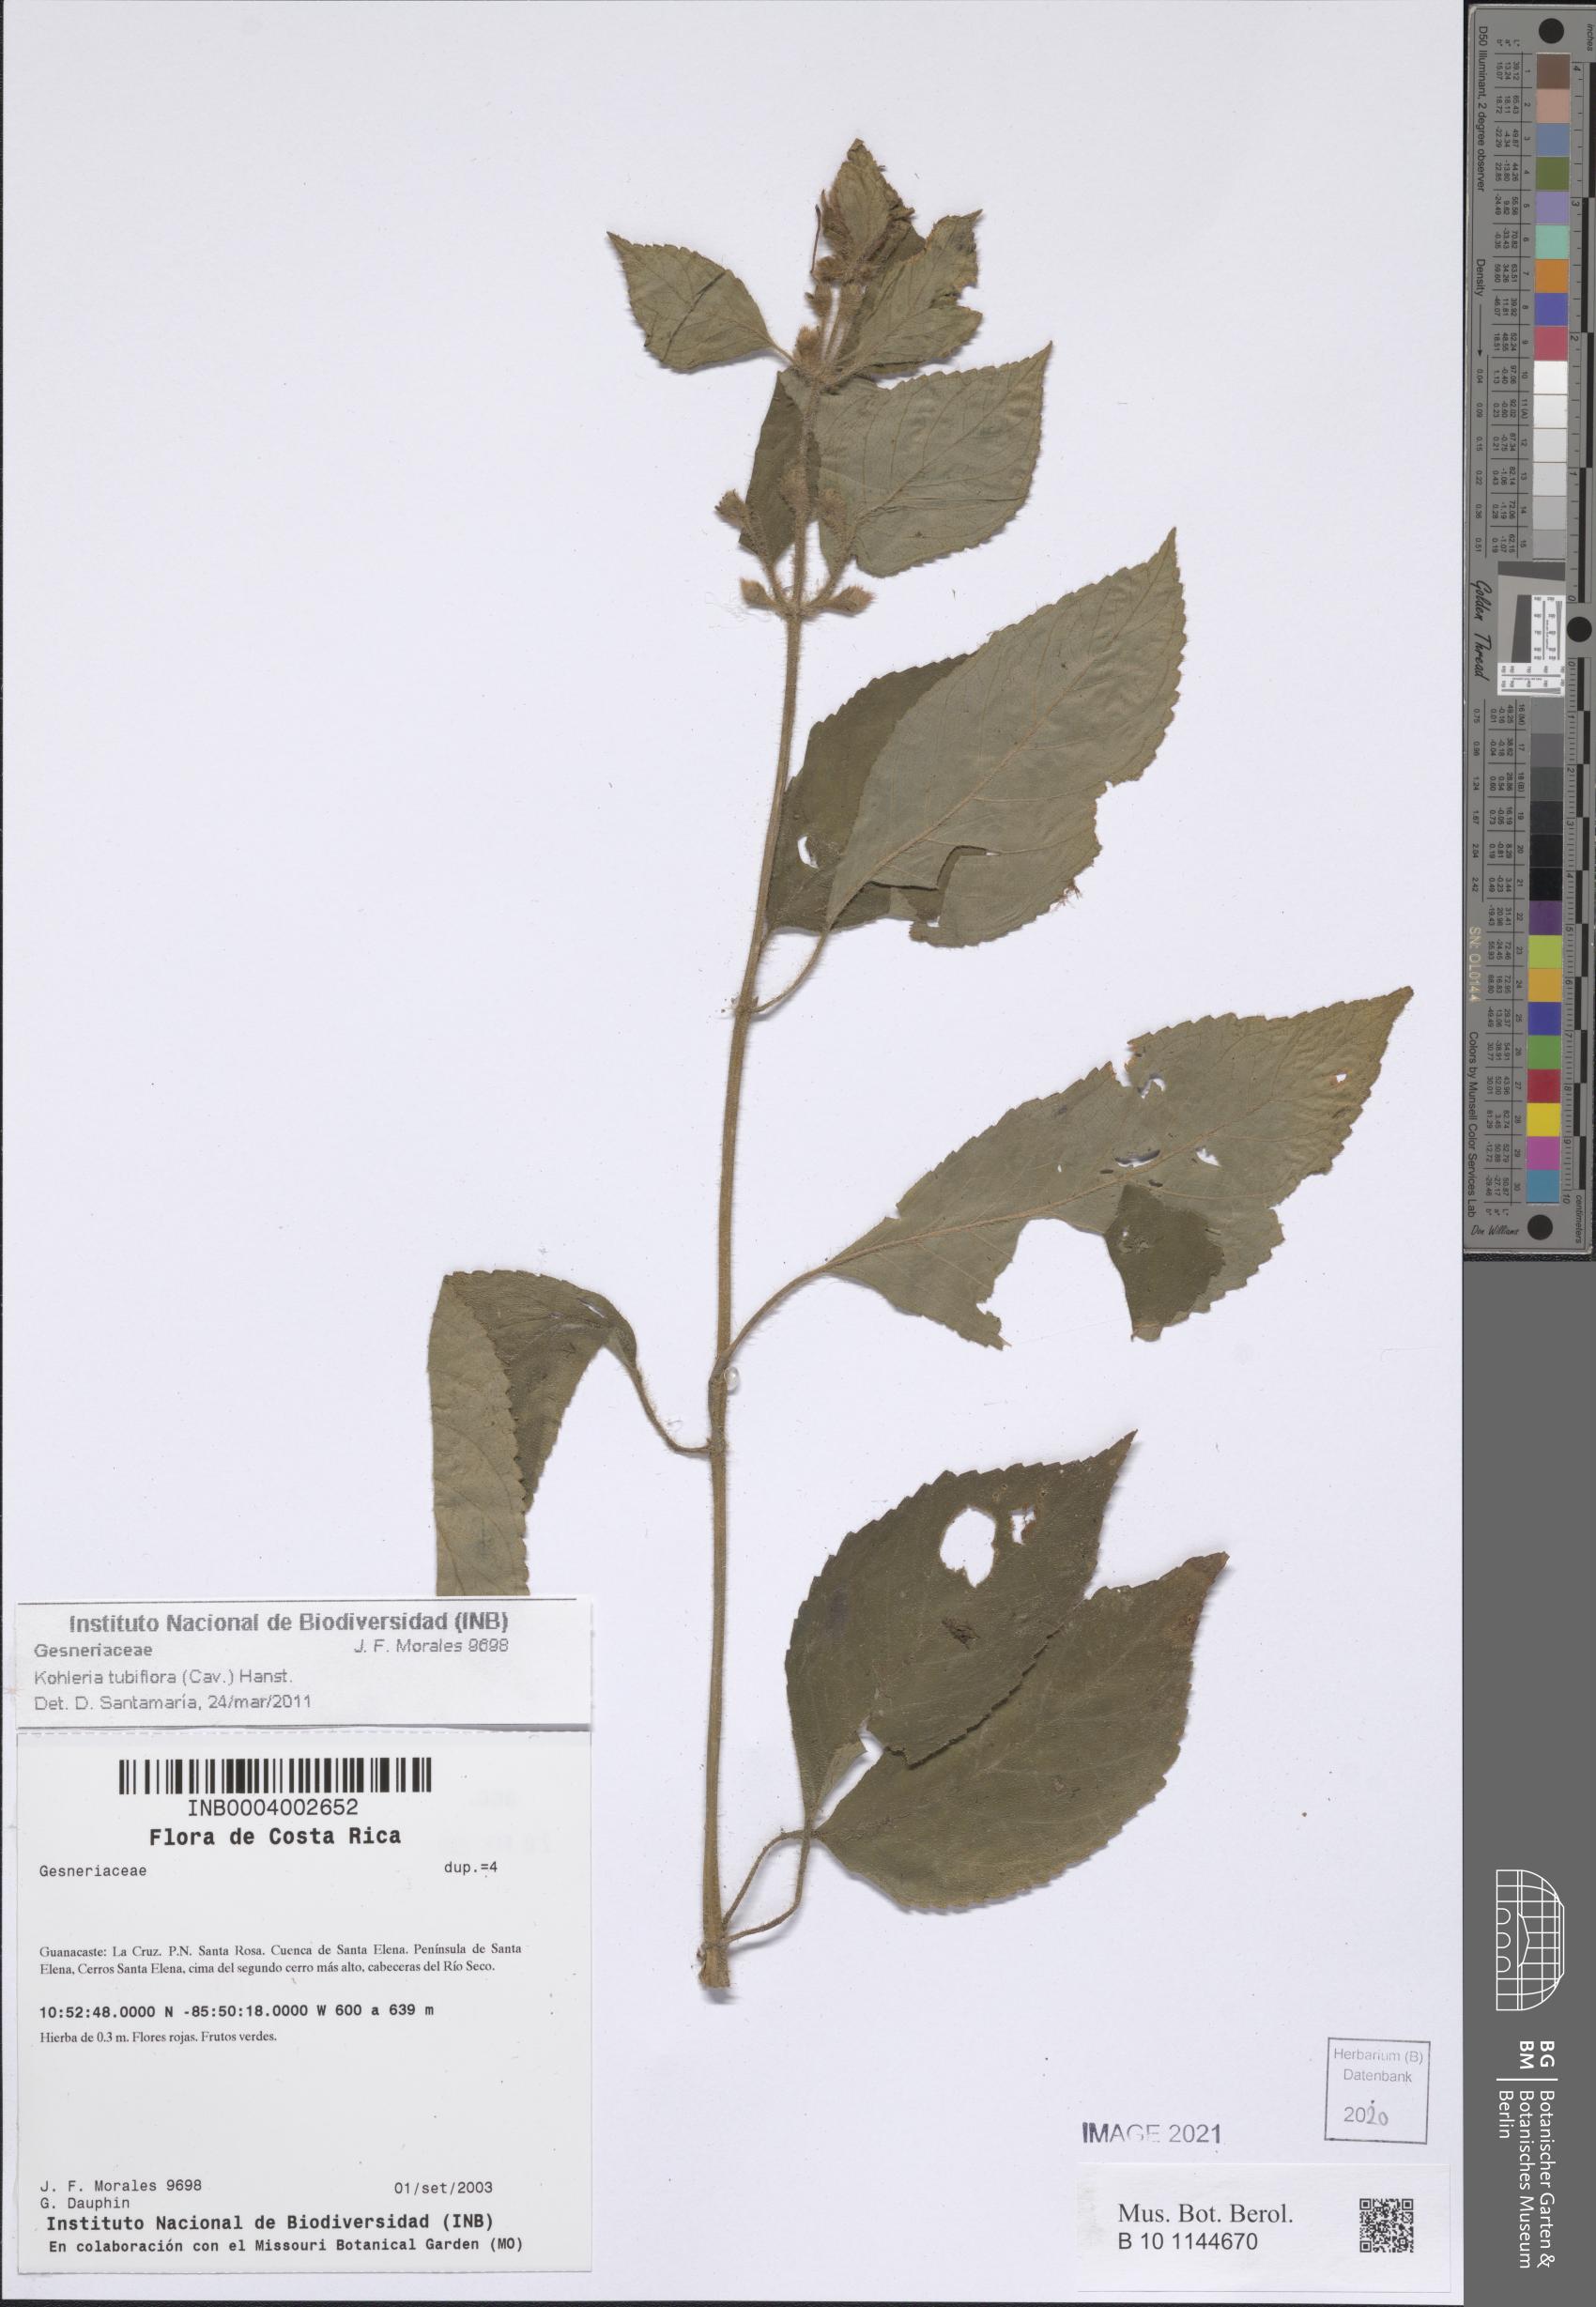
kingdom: Plantae
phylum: Tracheophyta
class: Magnoliopsida
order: Lamiales
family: Gesneriaceae
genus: Kohleria
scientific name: Kohleria tubiflora
